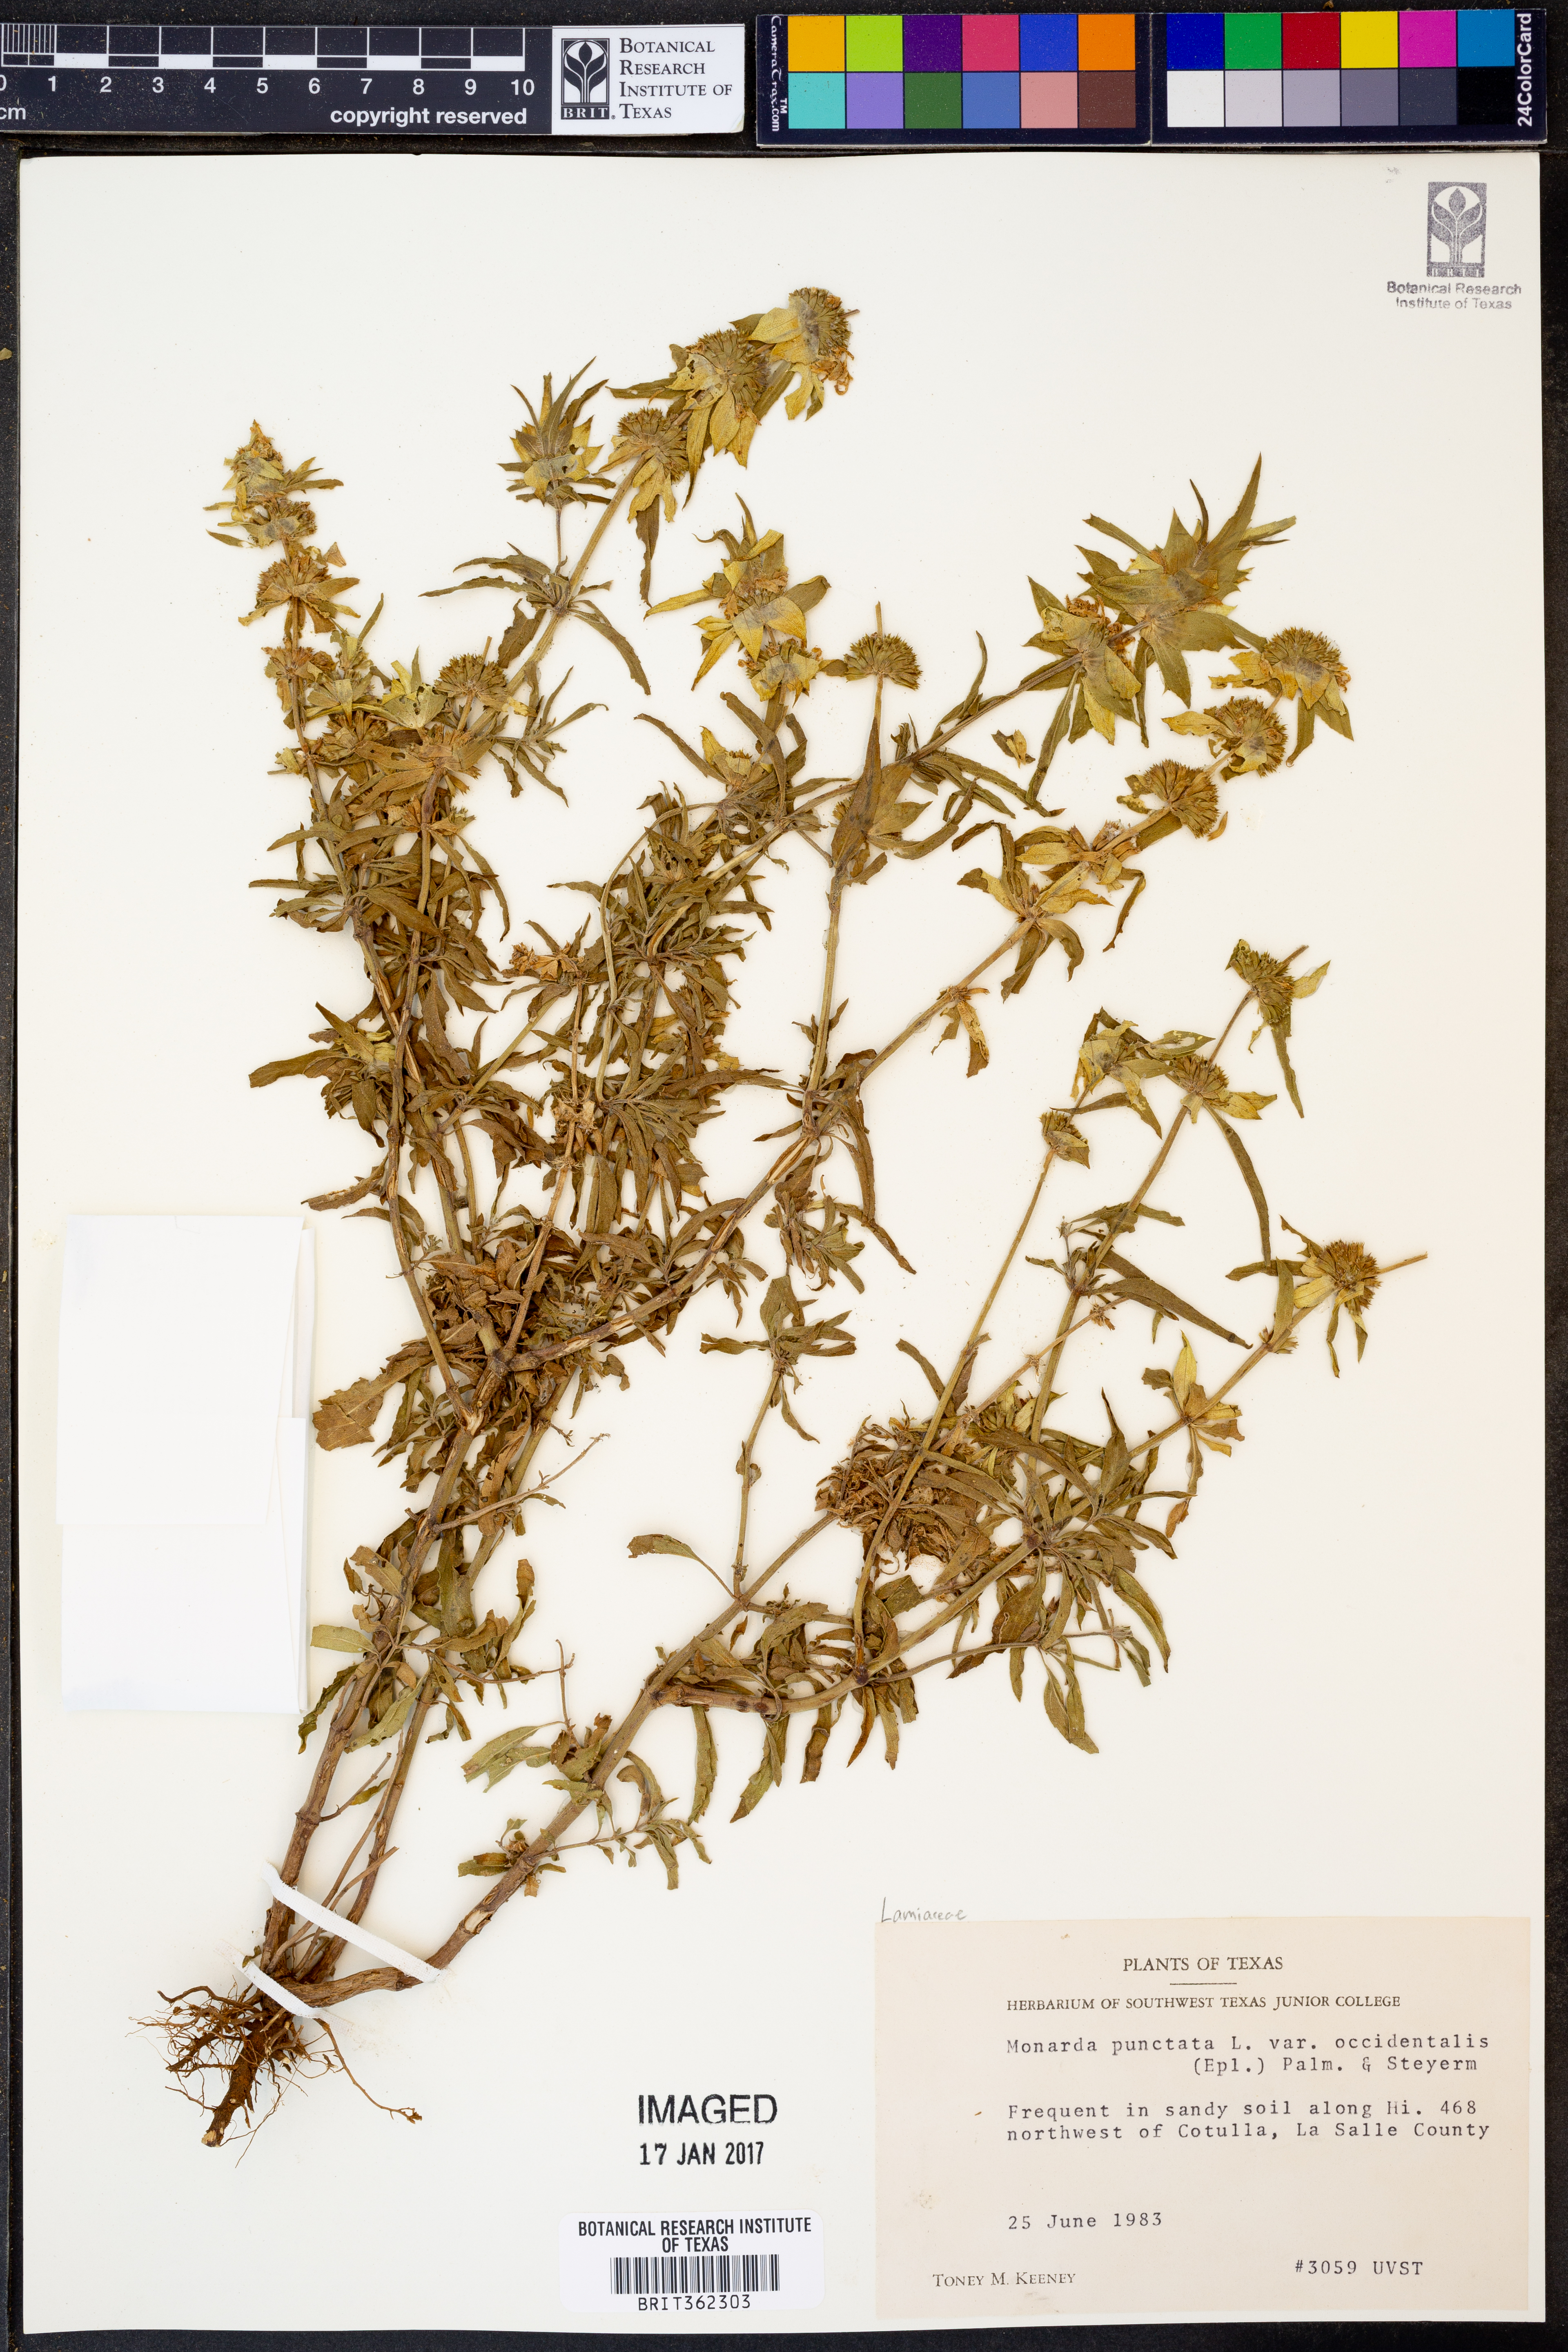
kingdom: Plantae
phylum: Tracheophyta
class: Magnoliopsida
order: Lamiales
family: Lamiaceae
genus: Monarda
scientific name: Monarda punctata
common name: Dotted monarda
